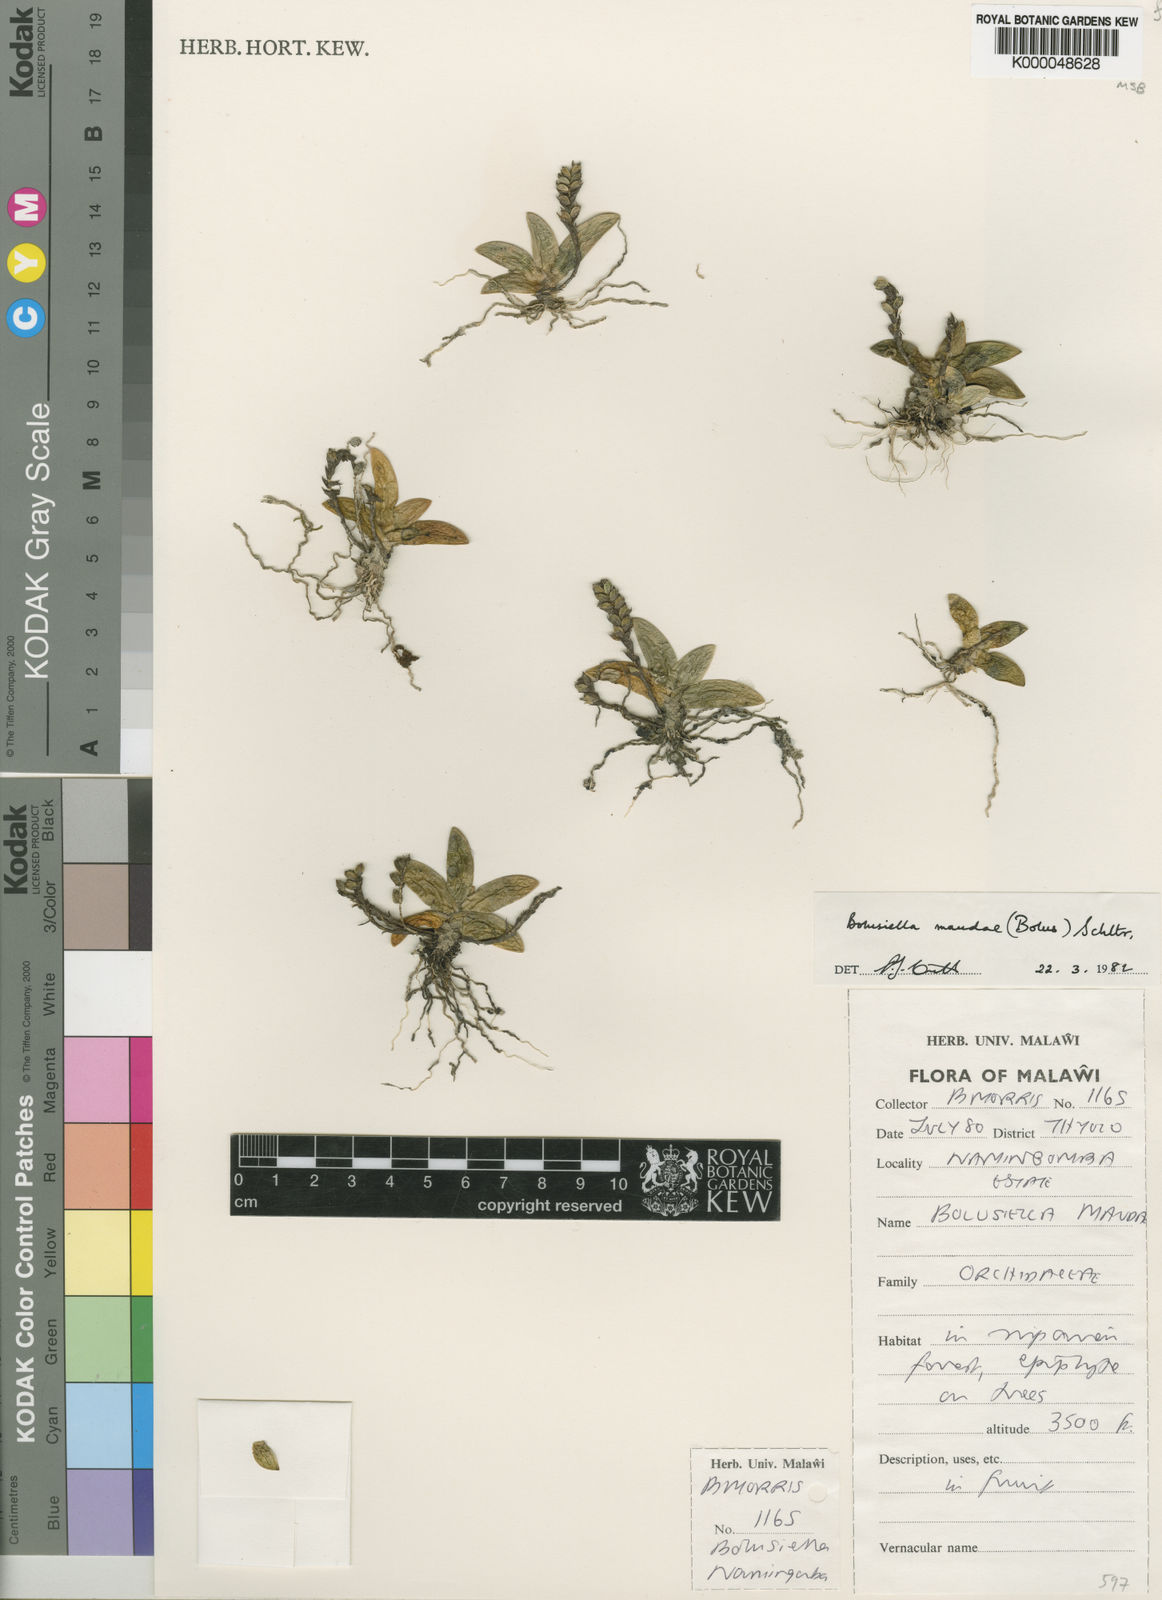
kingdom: Plantae
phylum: Tracheophyta
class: Liliopsida
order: Asparagales
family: Orchidaceae
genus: Bolusiella
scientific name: Bolusiella maudiae
